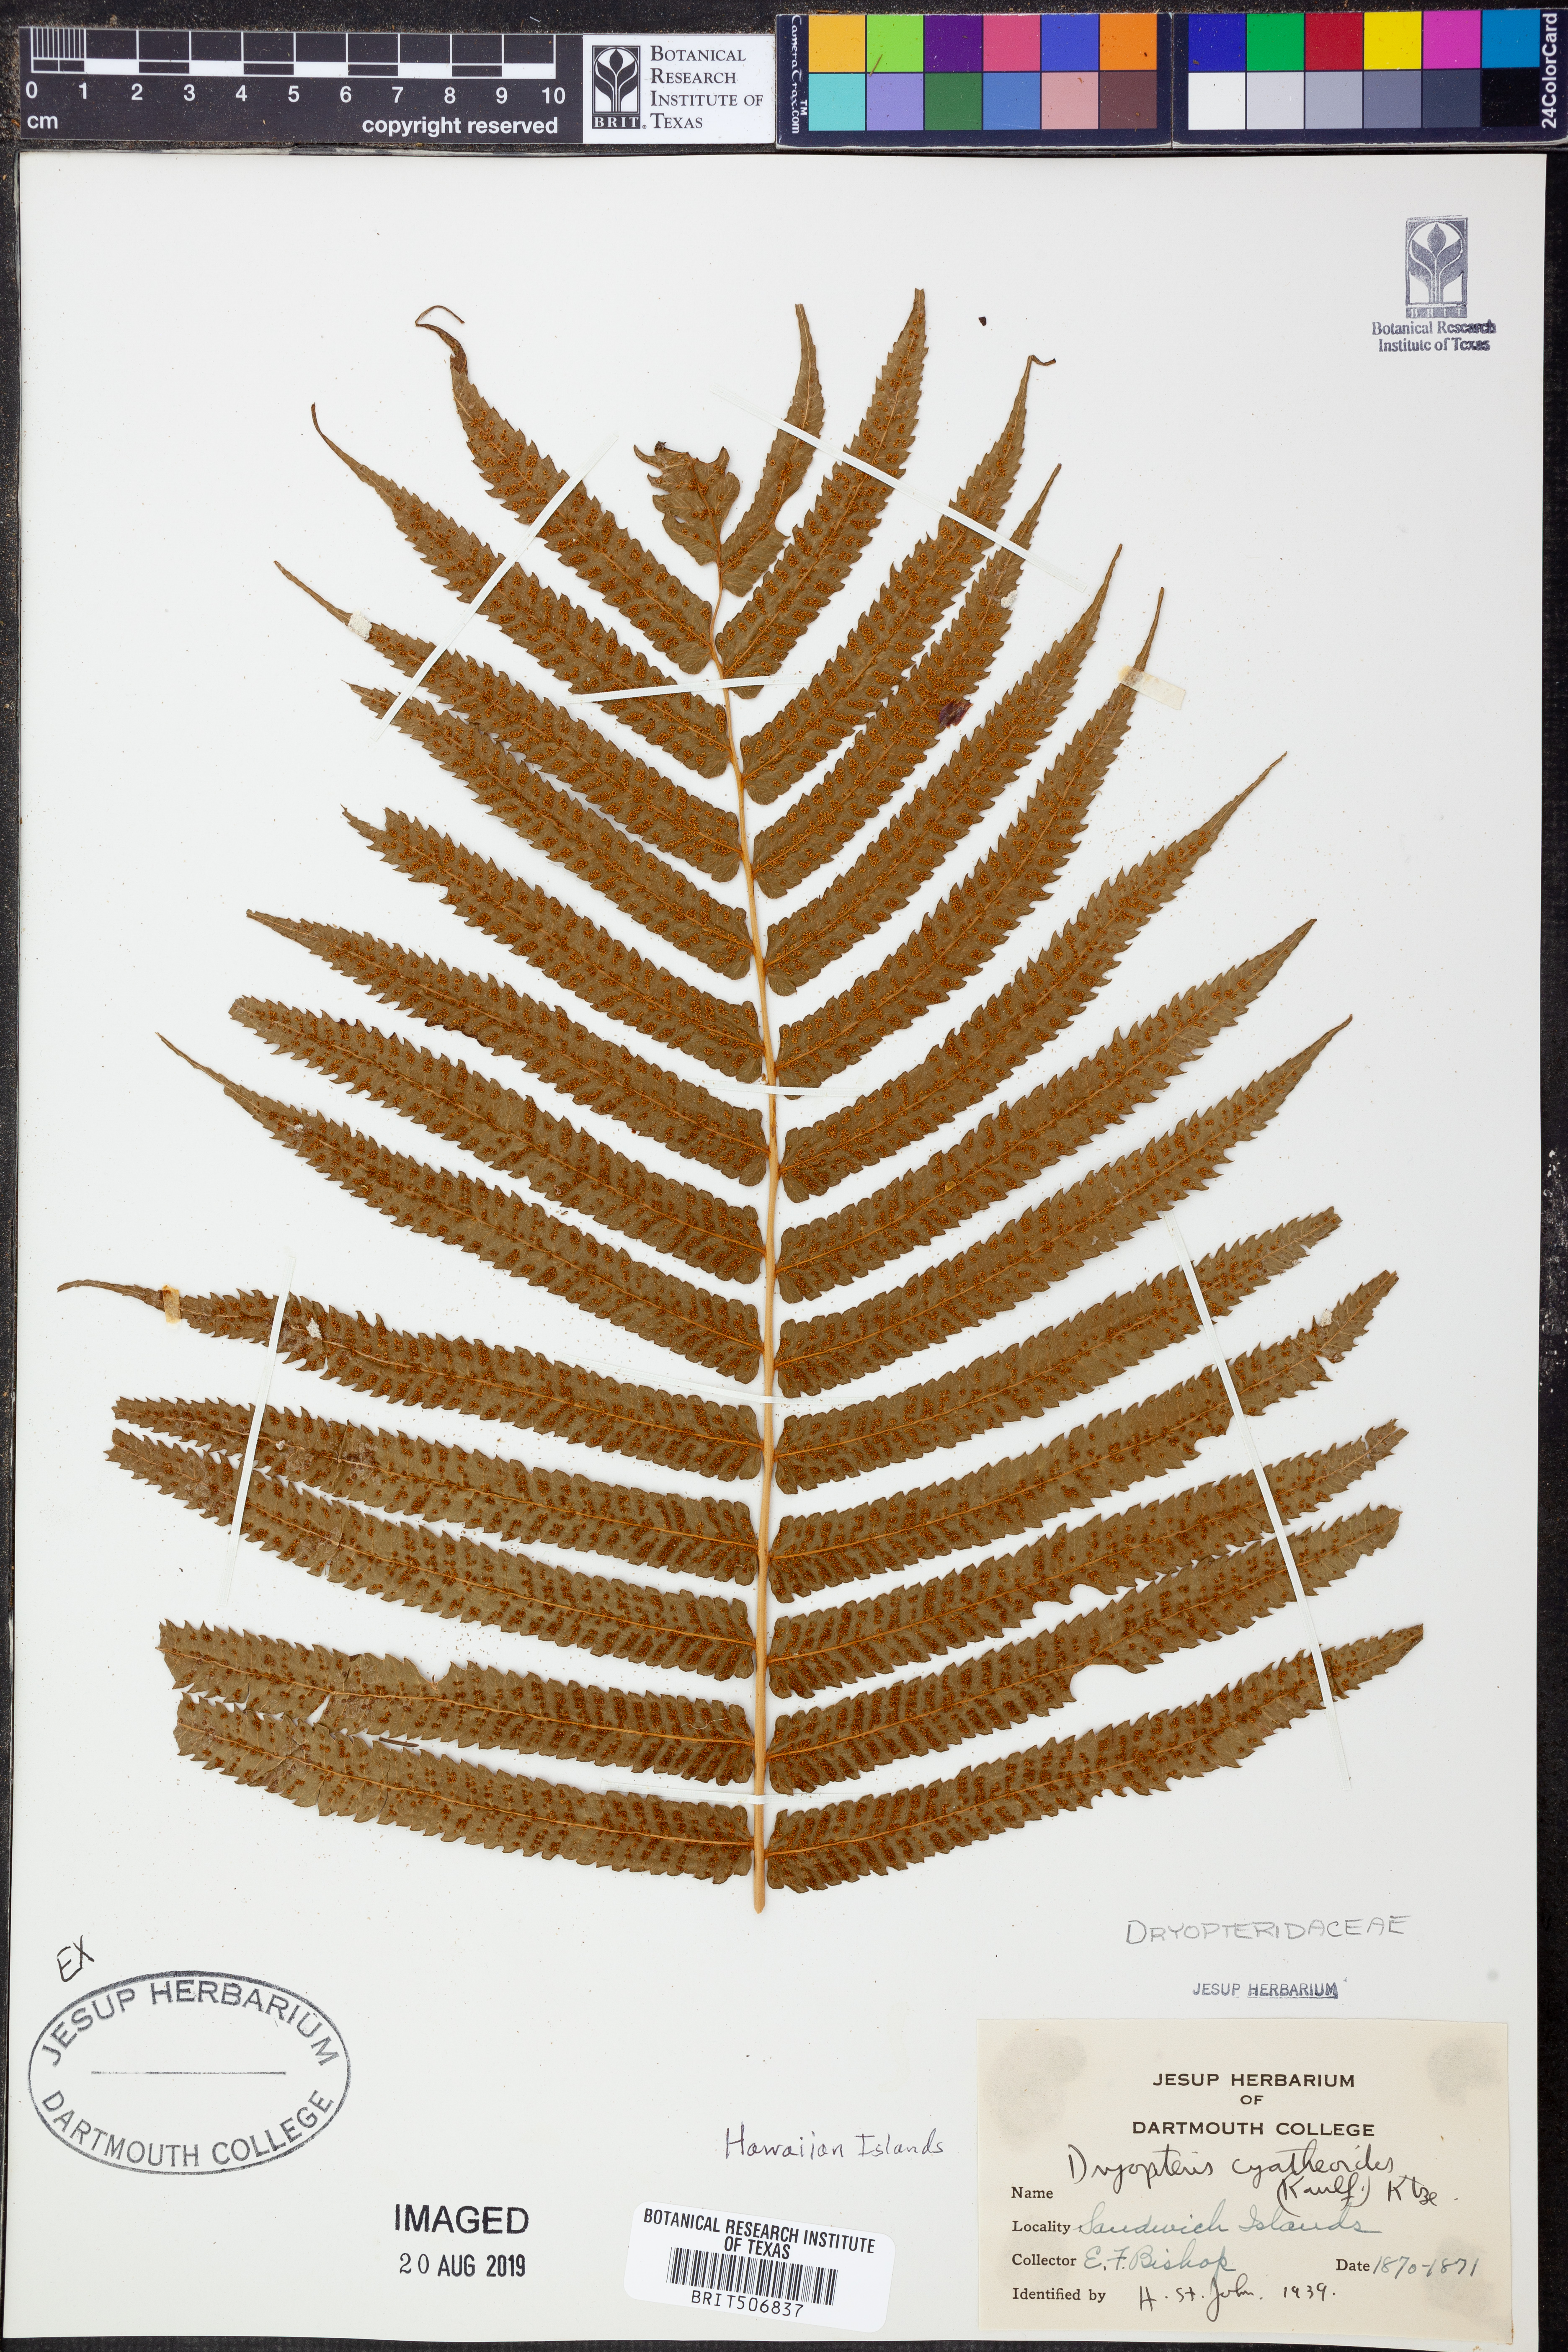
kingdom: Plantae
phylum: Tracheophyta
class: Polypodiopsida
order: Polypodiales
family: Thelypteridaceae
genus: Menisciopsis
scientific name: Menisciopsis cyatheoides
